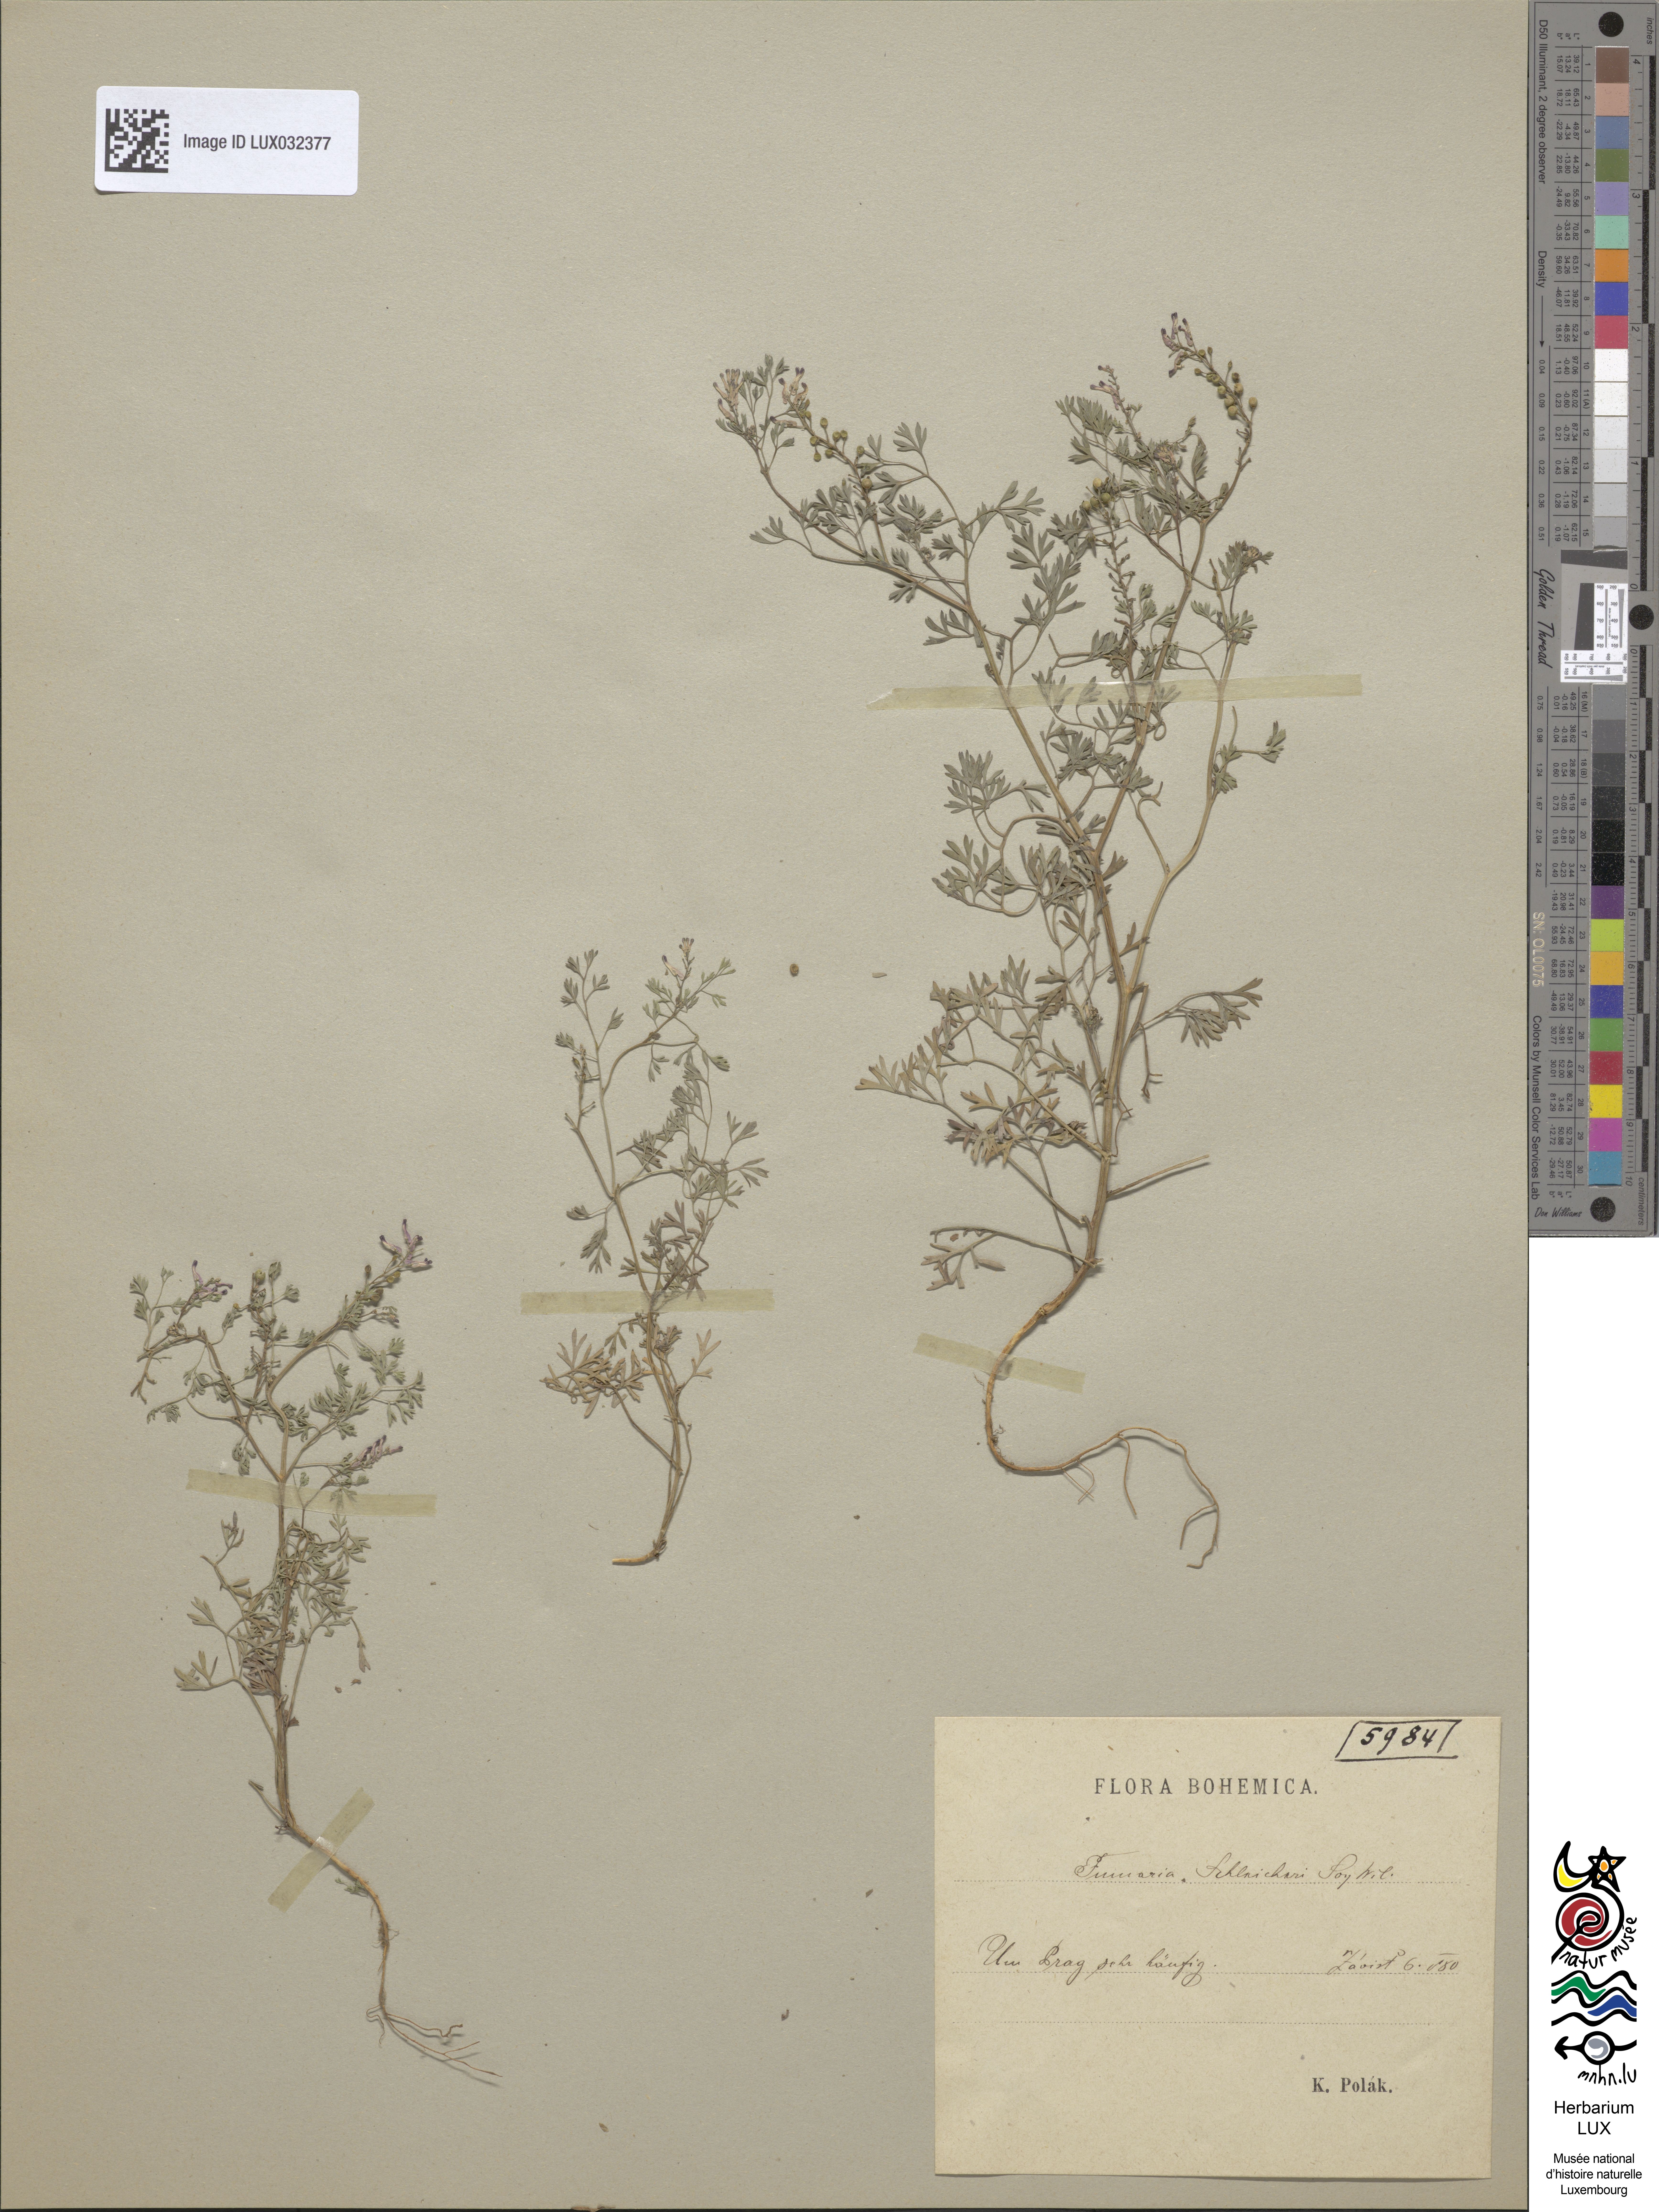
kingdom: Plantae
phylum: Tracheophyta
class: Magnoliopsida
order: Ranunculales
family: Papaveraceae
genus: Fumaria
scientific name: Fumaria schleicheri
